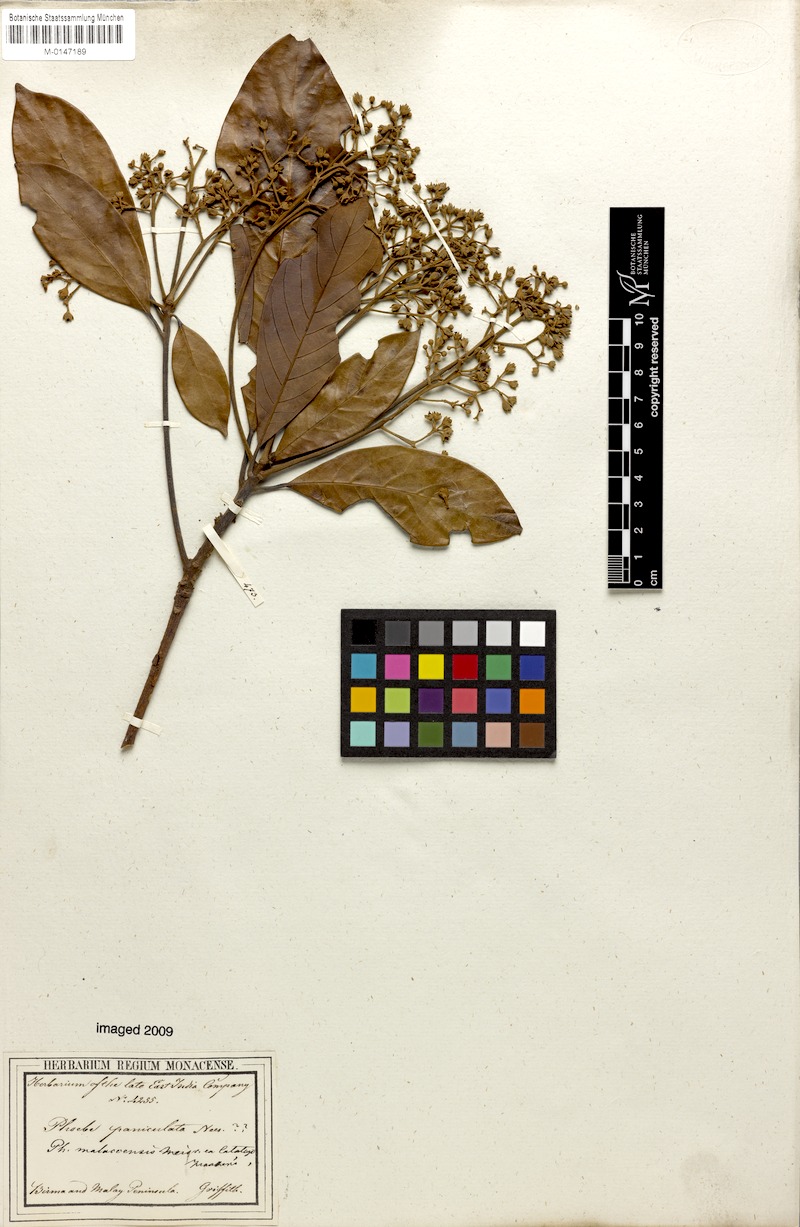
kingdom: Plantae
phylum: Tracheophyta
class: Magnoliopsida
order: Laurales
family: Lauraceae
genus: Phoebe
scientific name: Phoebe cathia
